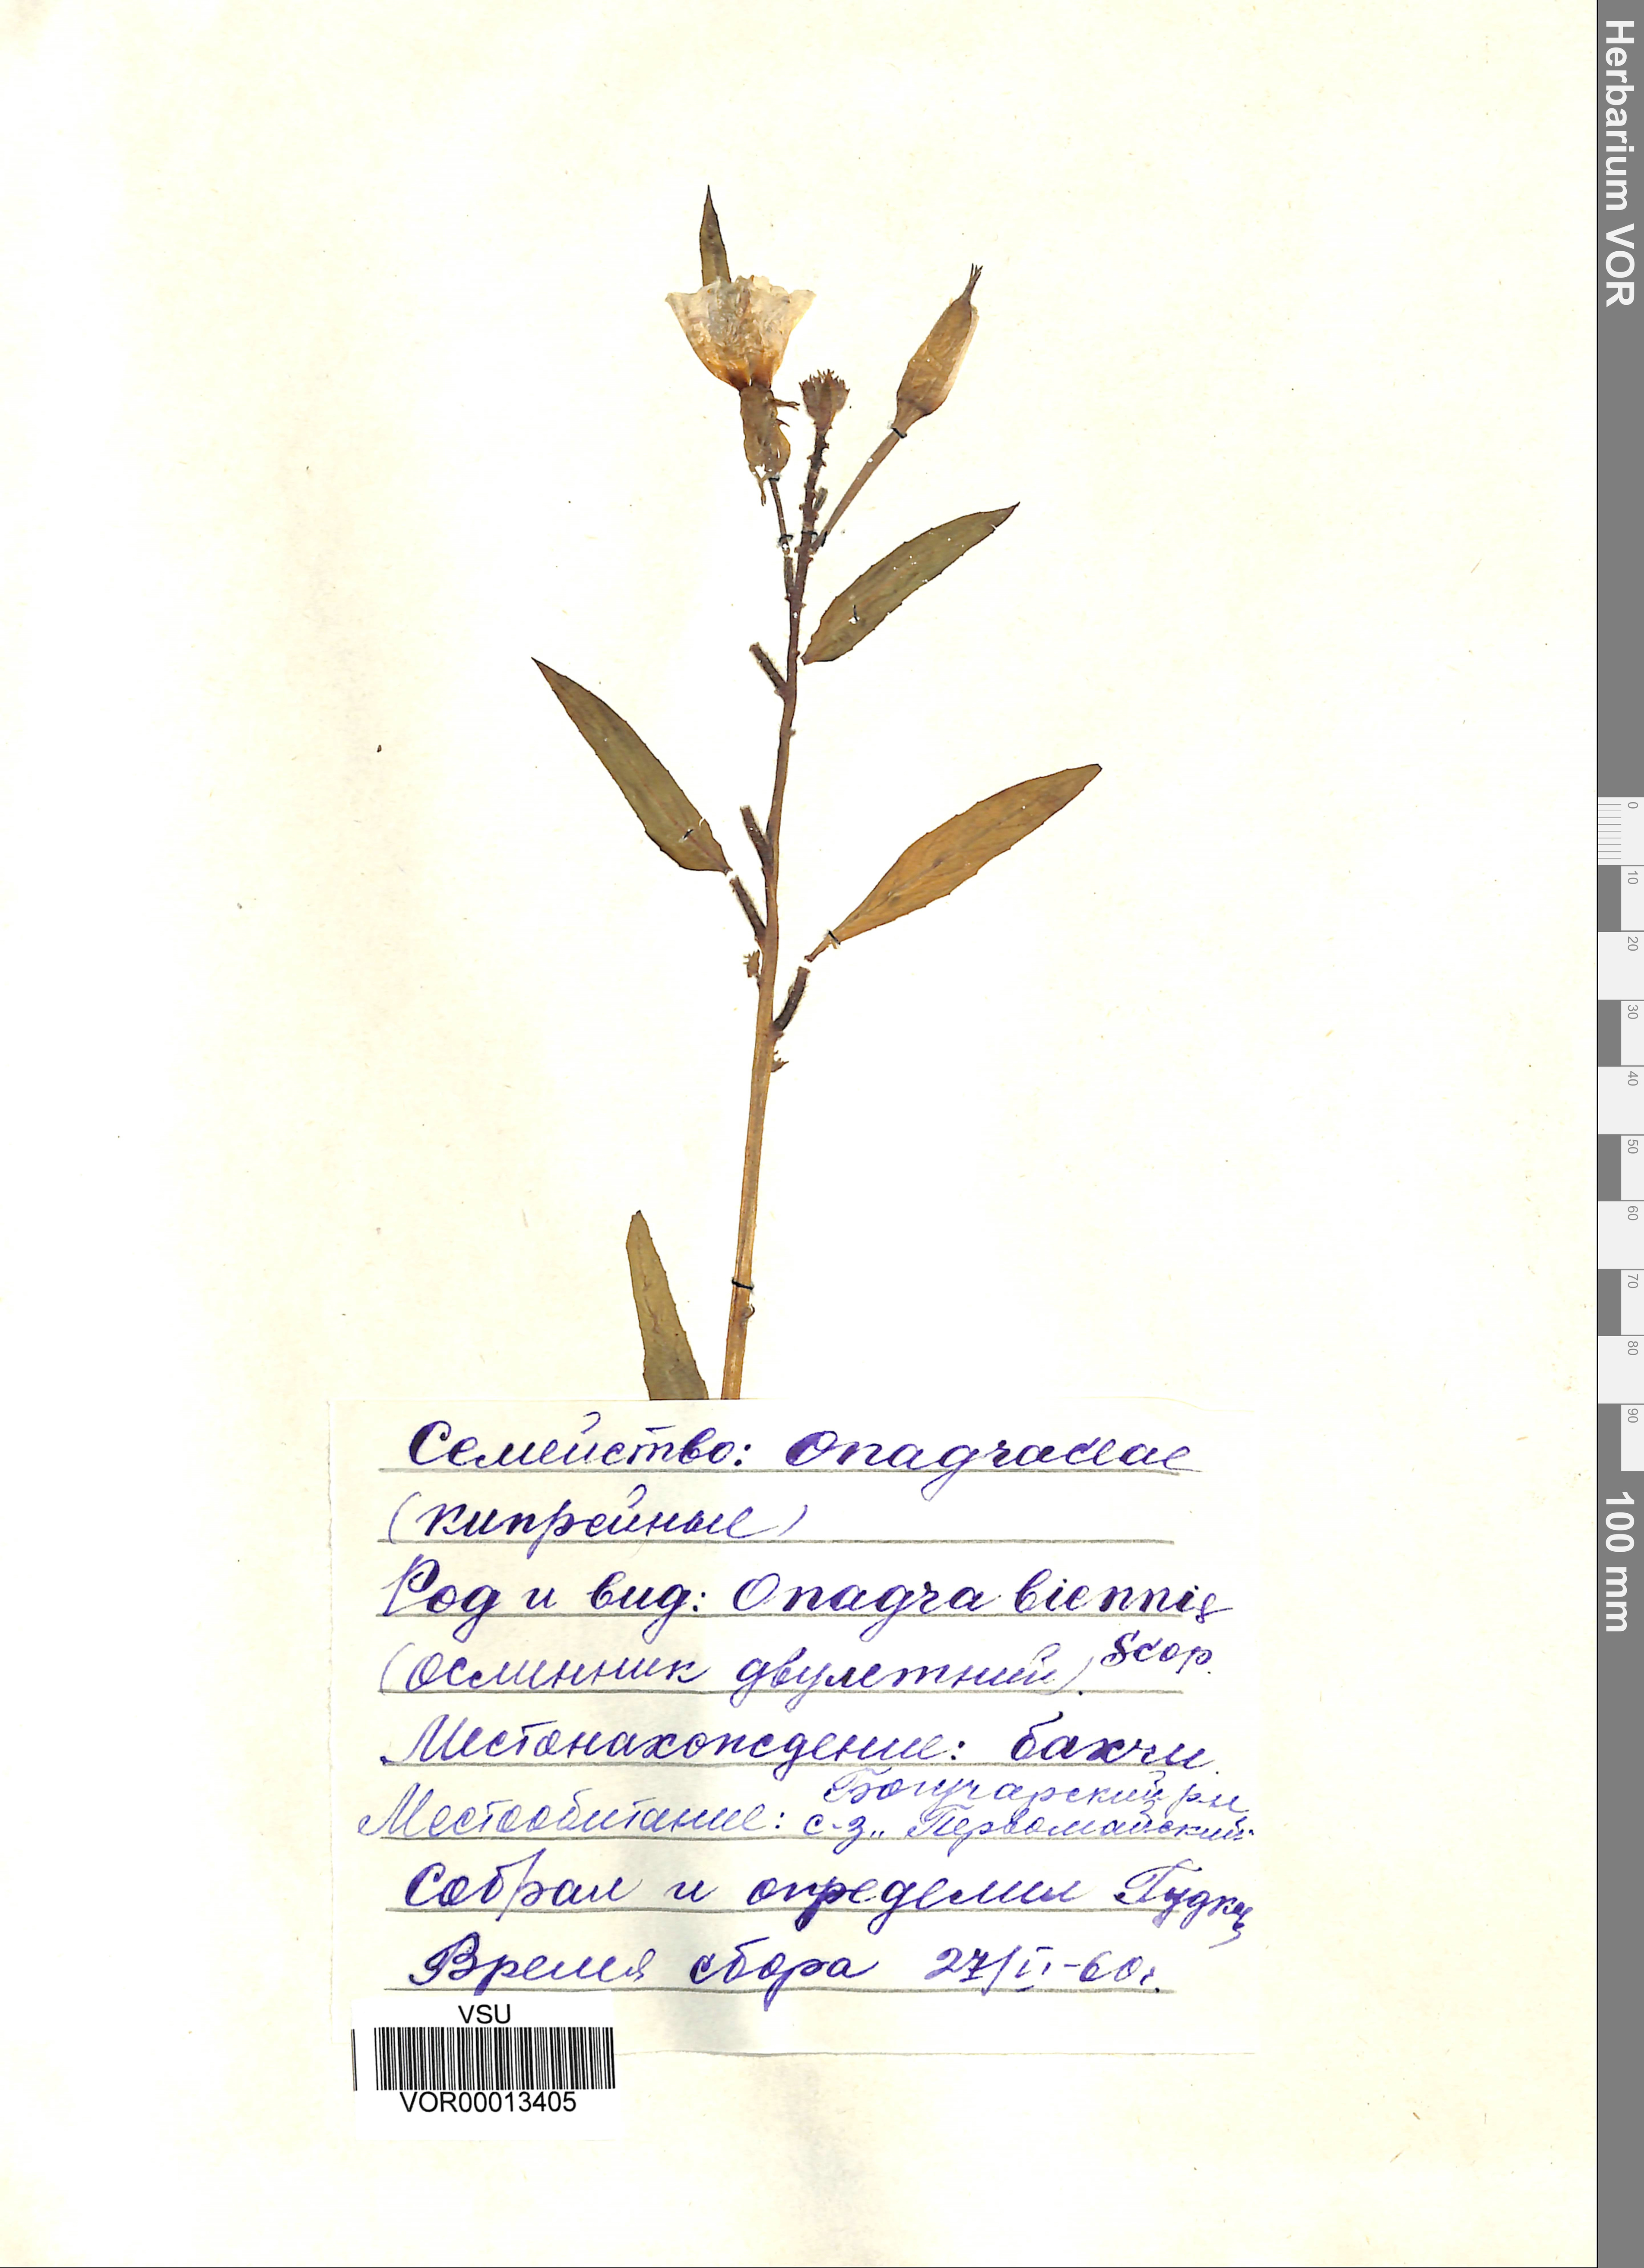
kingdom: Plantae
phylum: Tracheophyta
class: Magnoliopsida
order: Myrtales
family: Onagraceae
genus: Oenothera
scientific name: Oenothera biennis
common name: Common evening-primrose
